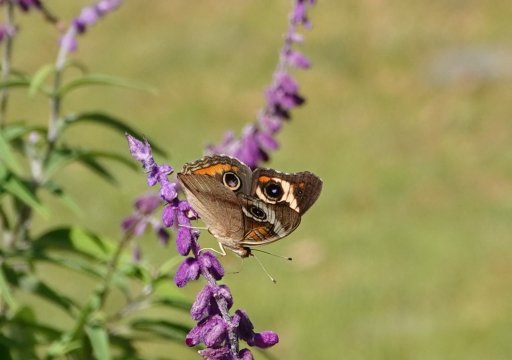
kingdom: Animalia
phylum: Arthropoda
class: Insecta
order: Lepidoptera
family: Nymphalidae
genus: Junonia
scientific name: Junonia coenia
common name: Common Buckeye
